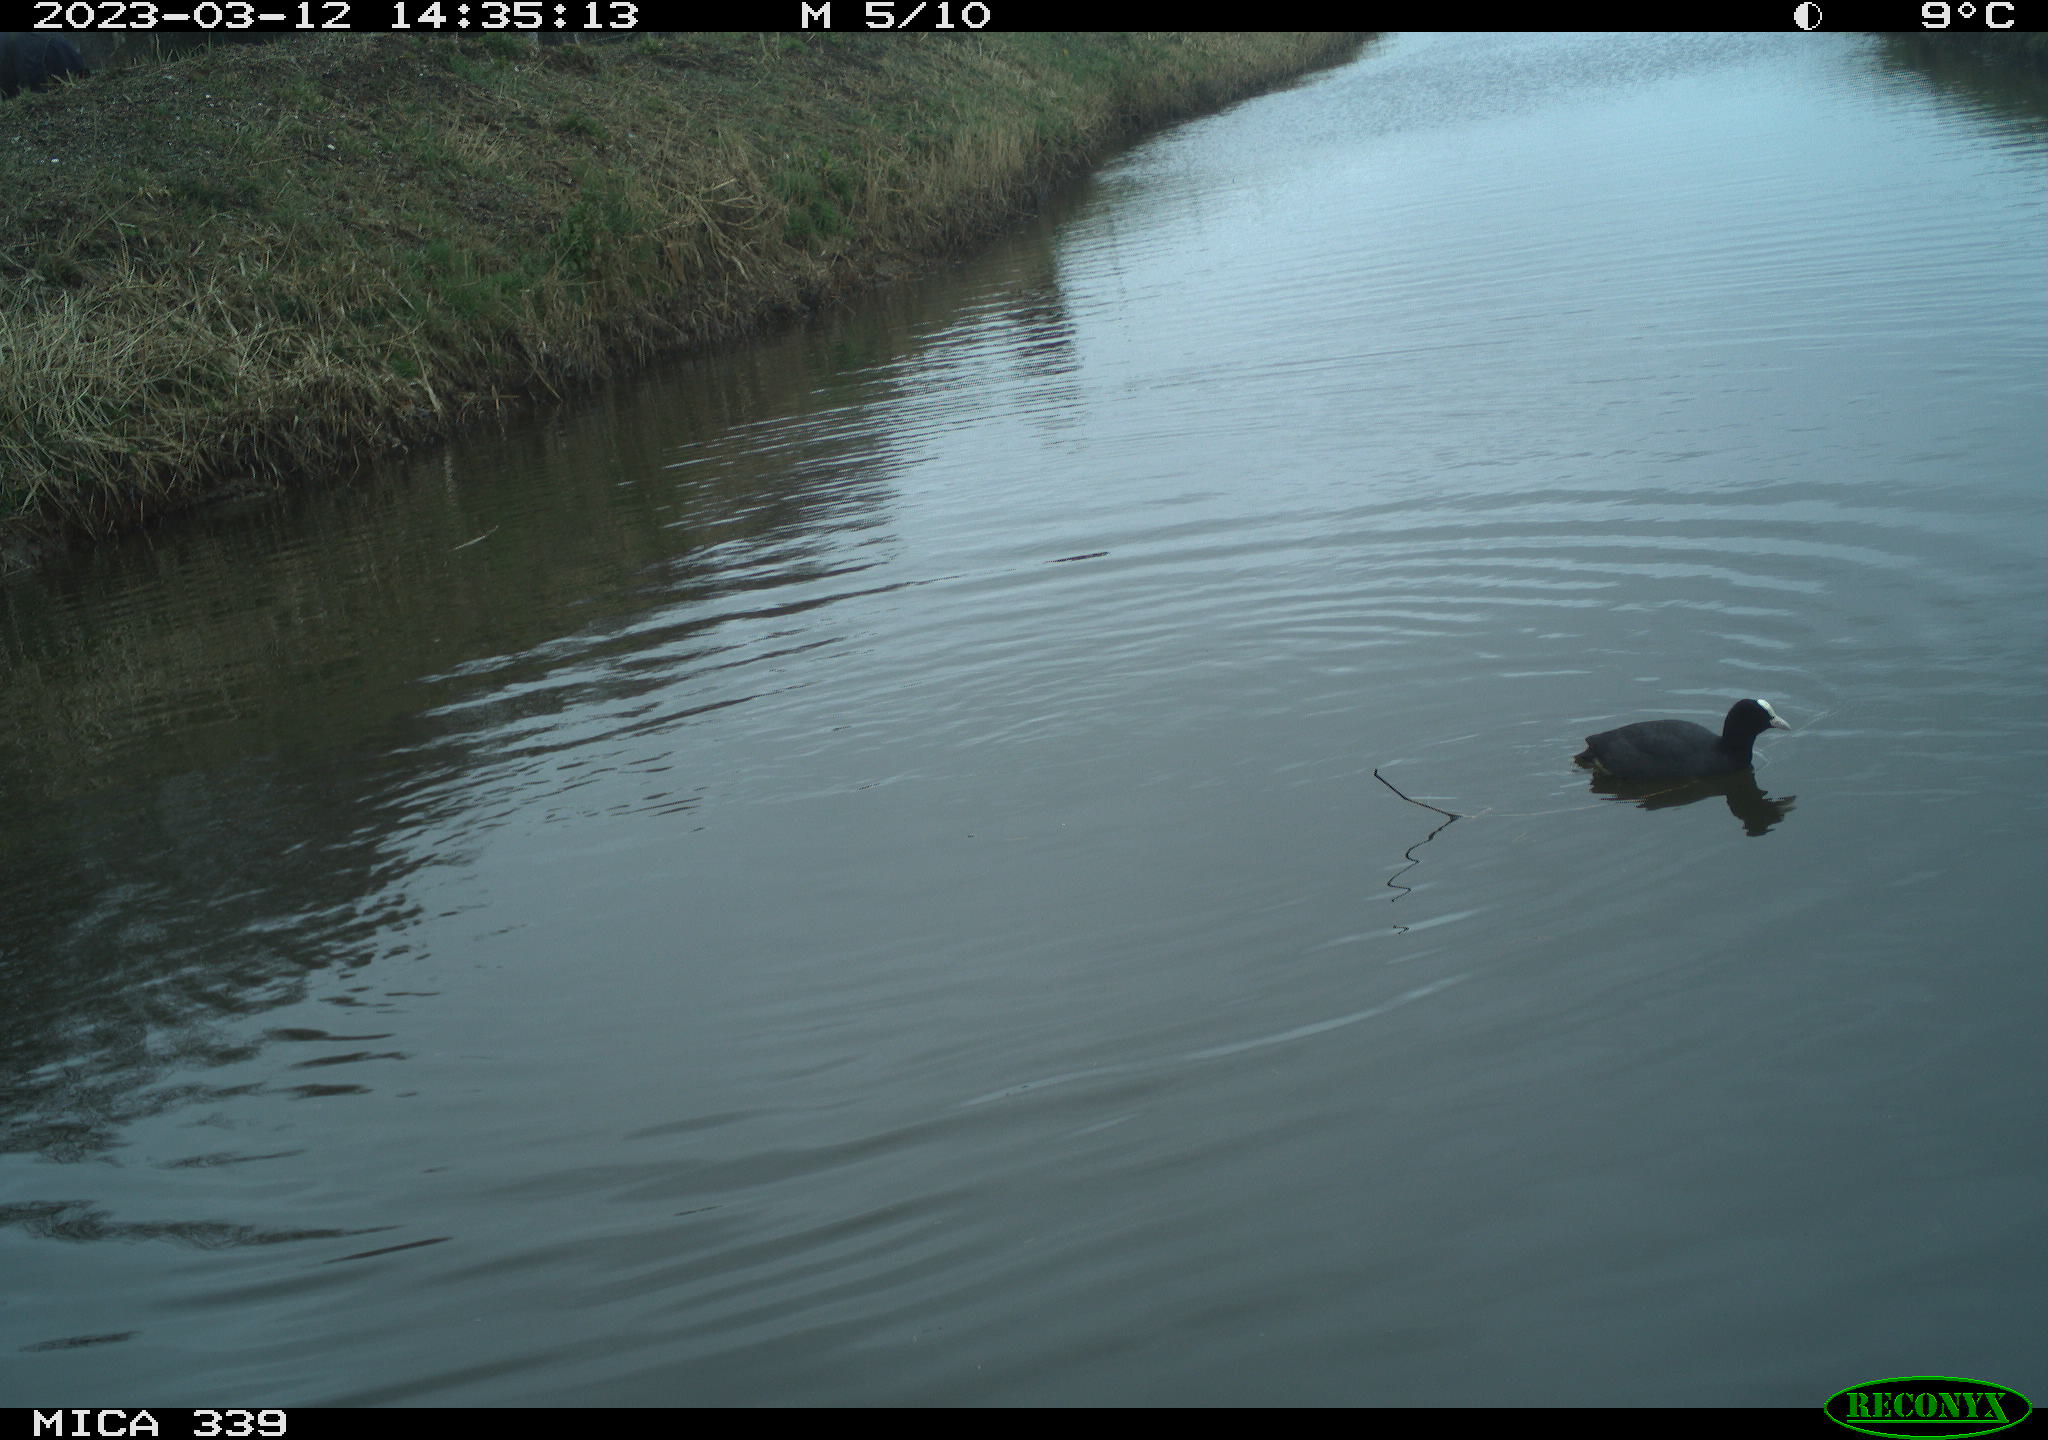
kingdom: Animalia
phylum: Chordata
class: Aves
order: Gruiformes
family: Rallidae
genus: Fulica
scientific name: Fulica atra
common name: Eurasian coot
